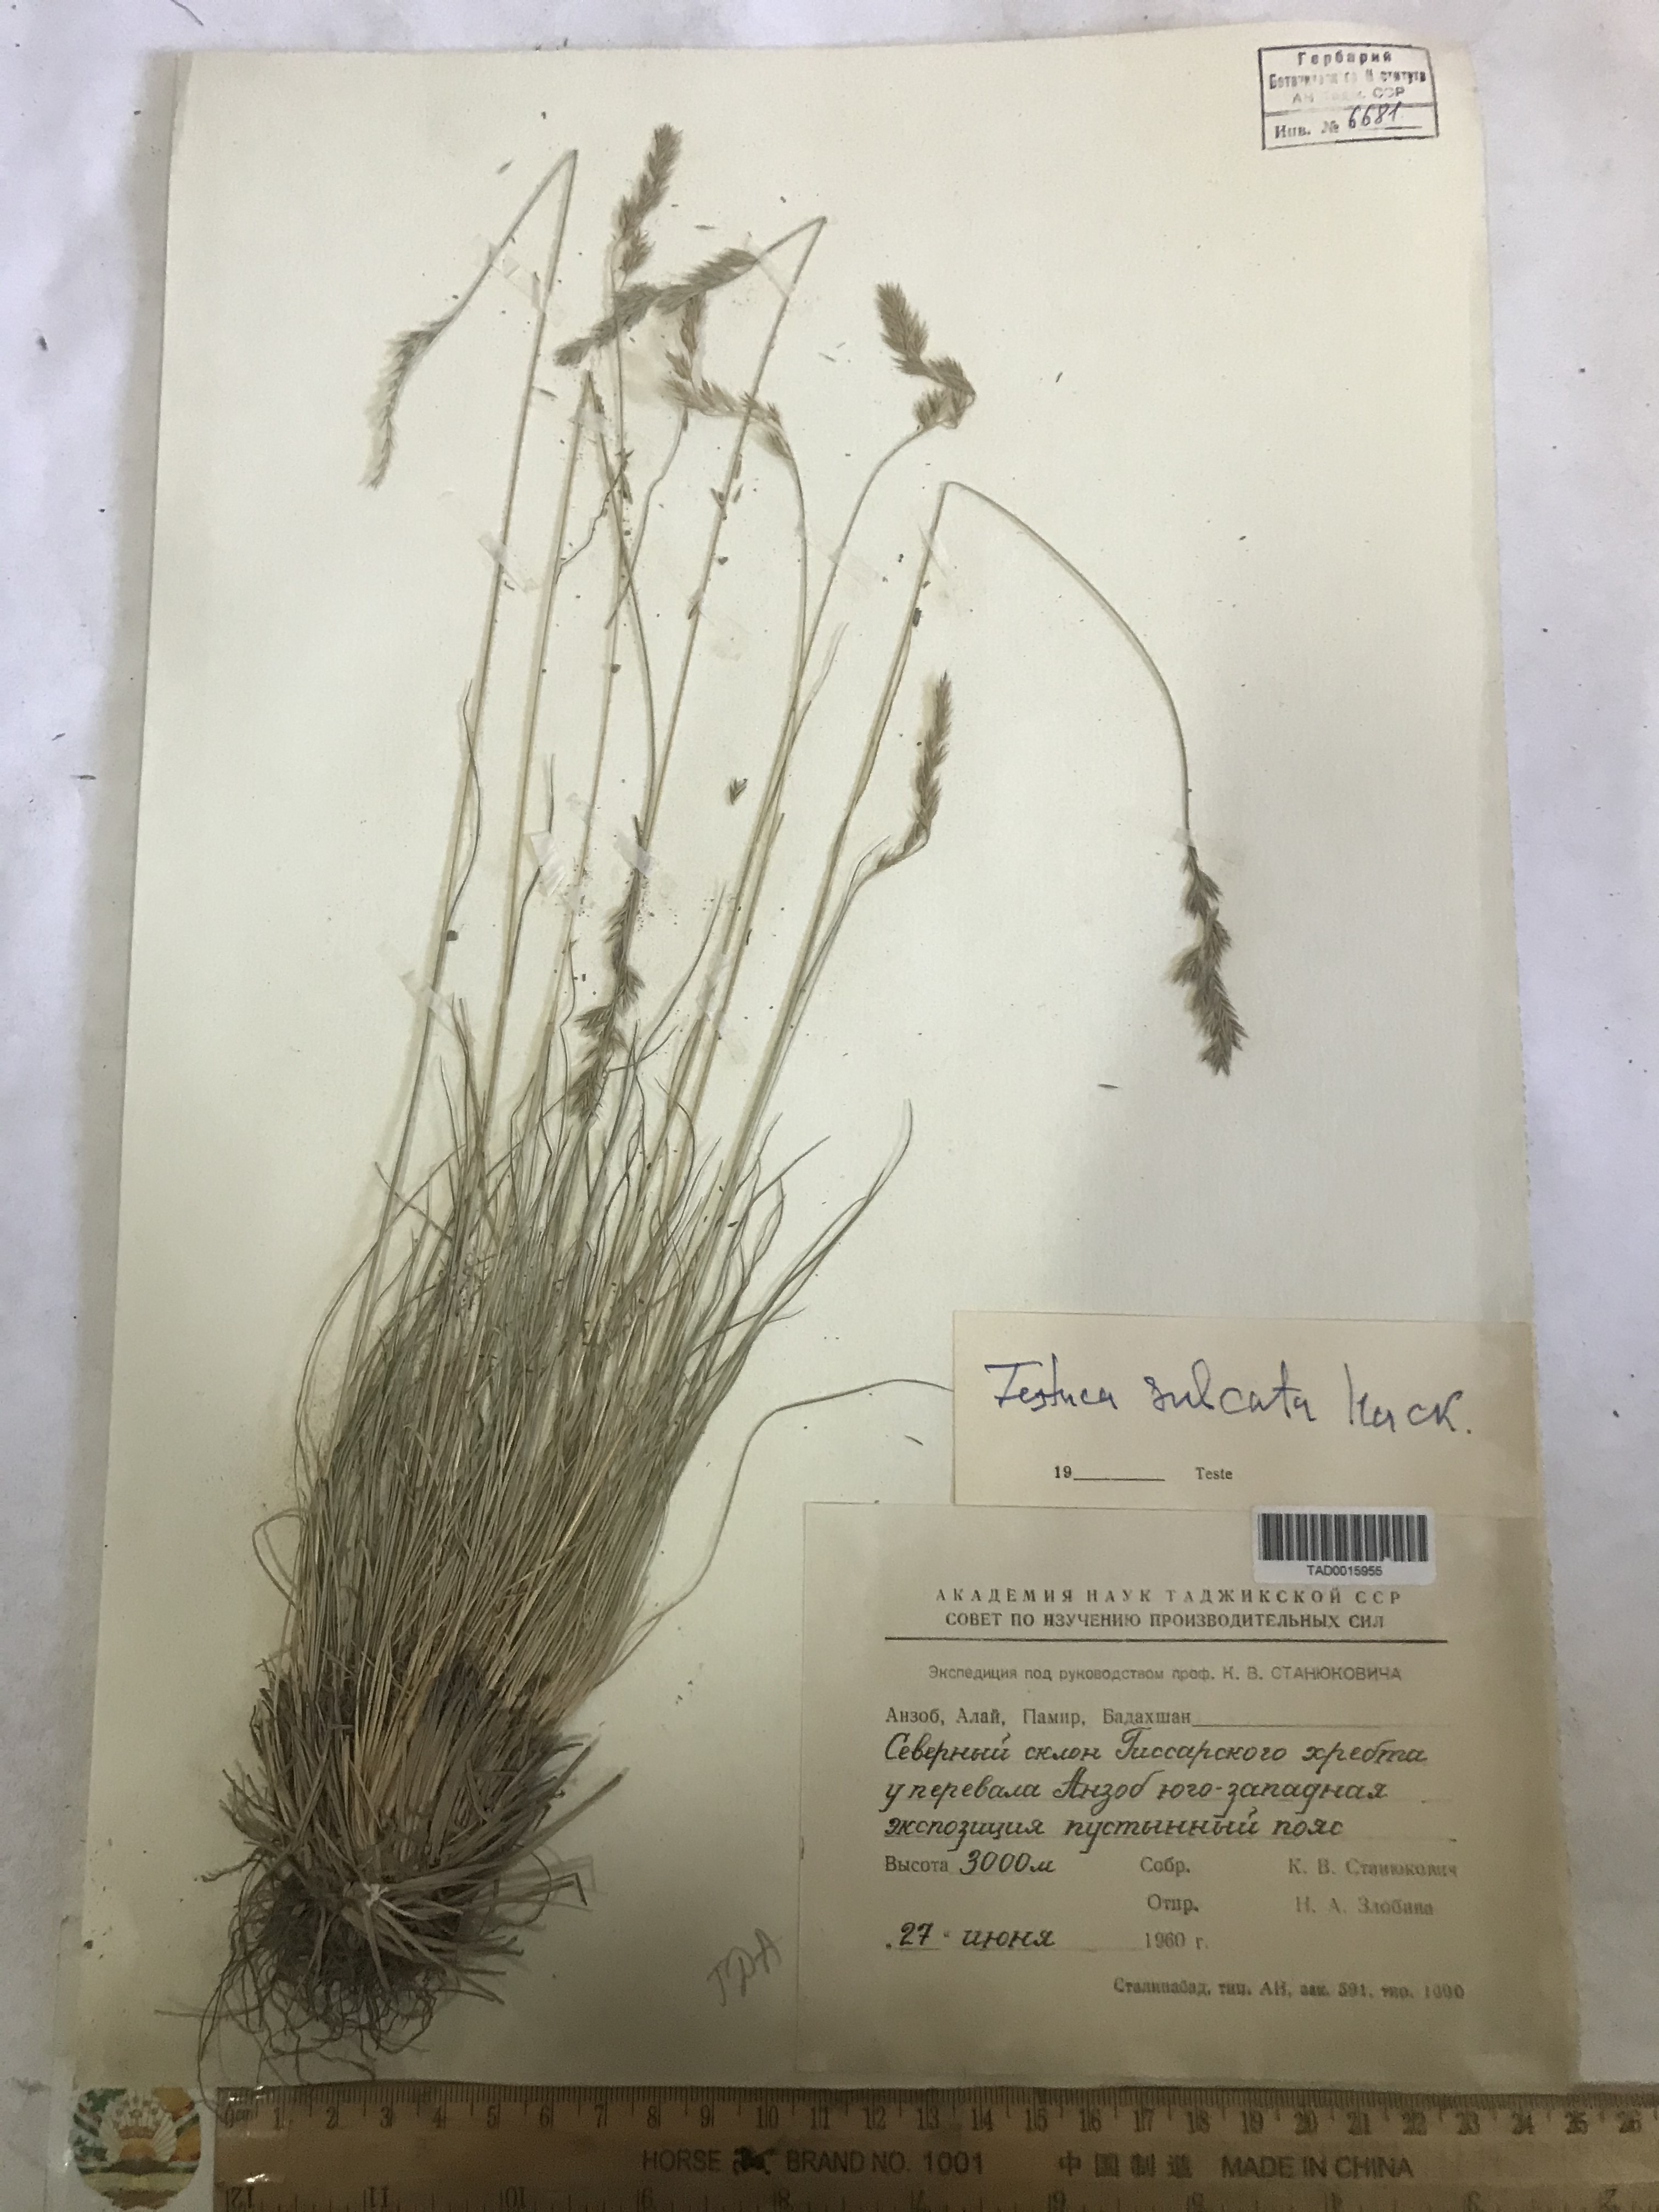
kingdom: Plantae
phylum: Tracheophyta
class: Liliopsida
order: Poales
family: Poaceae
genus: Festuca
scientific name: Festuca sulcata
